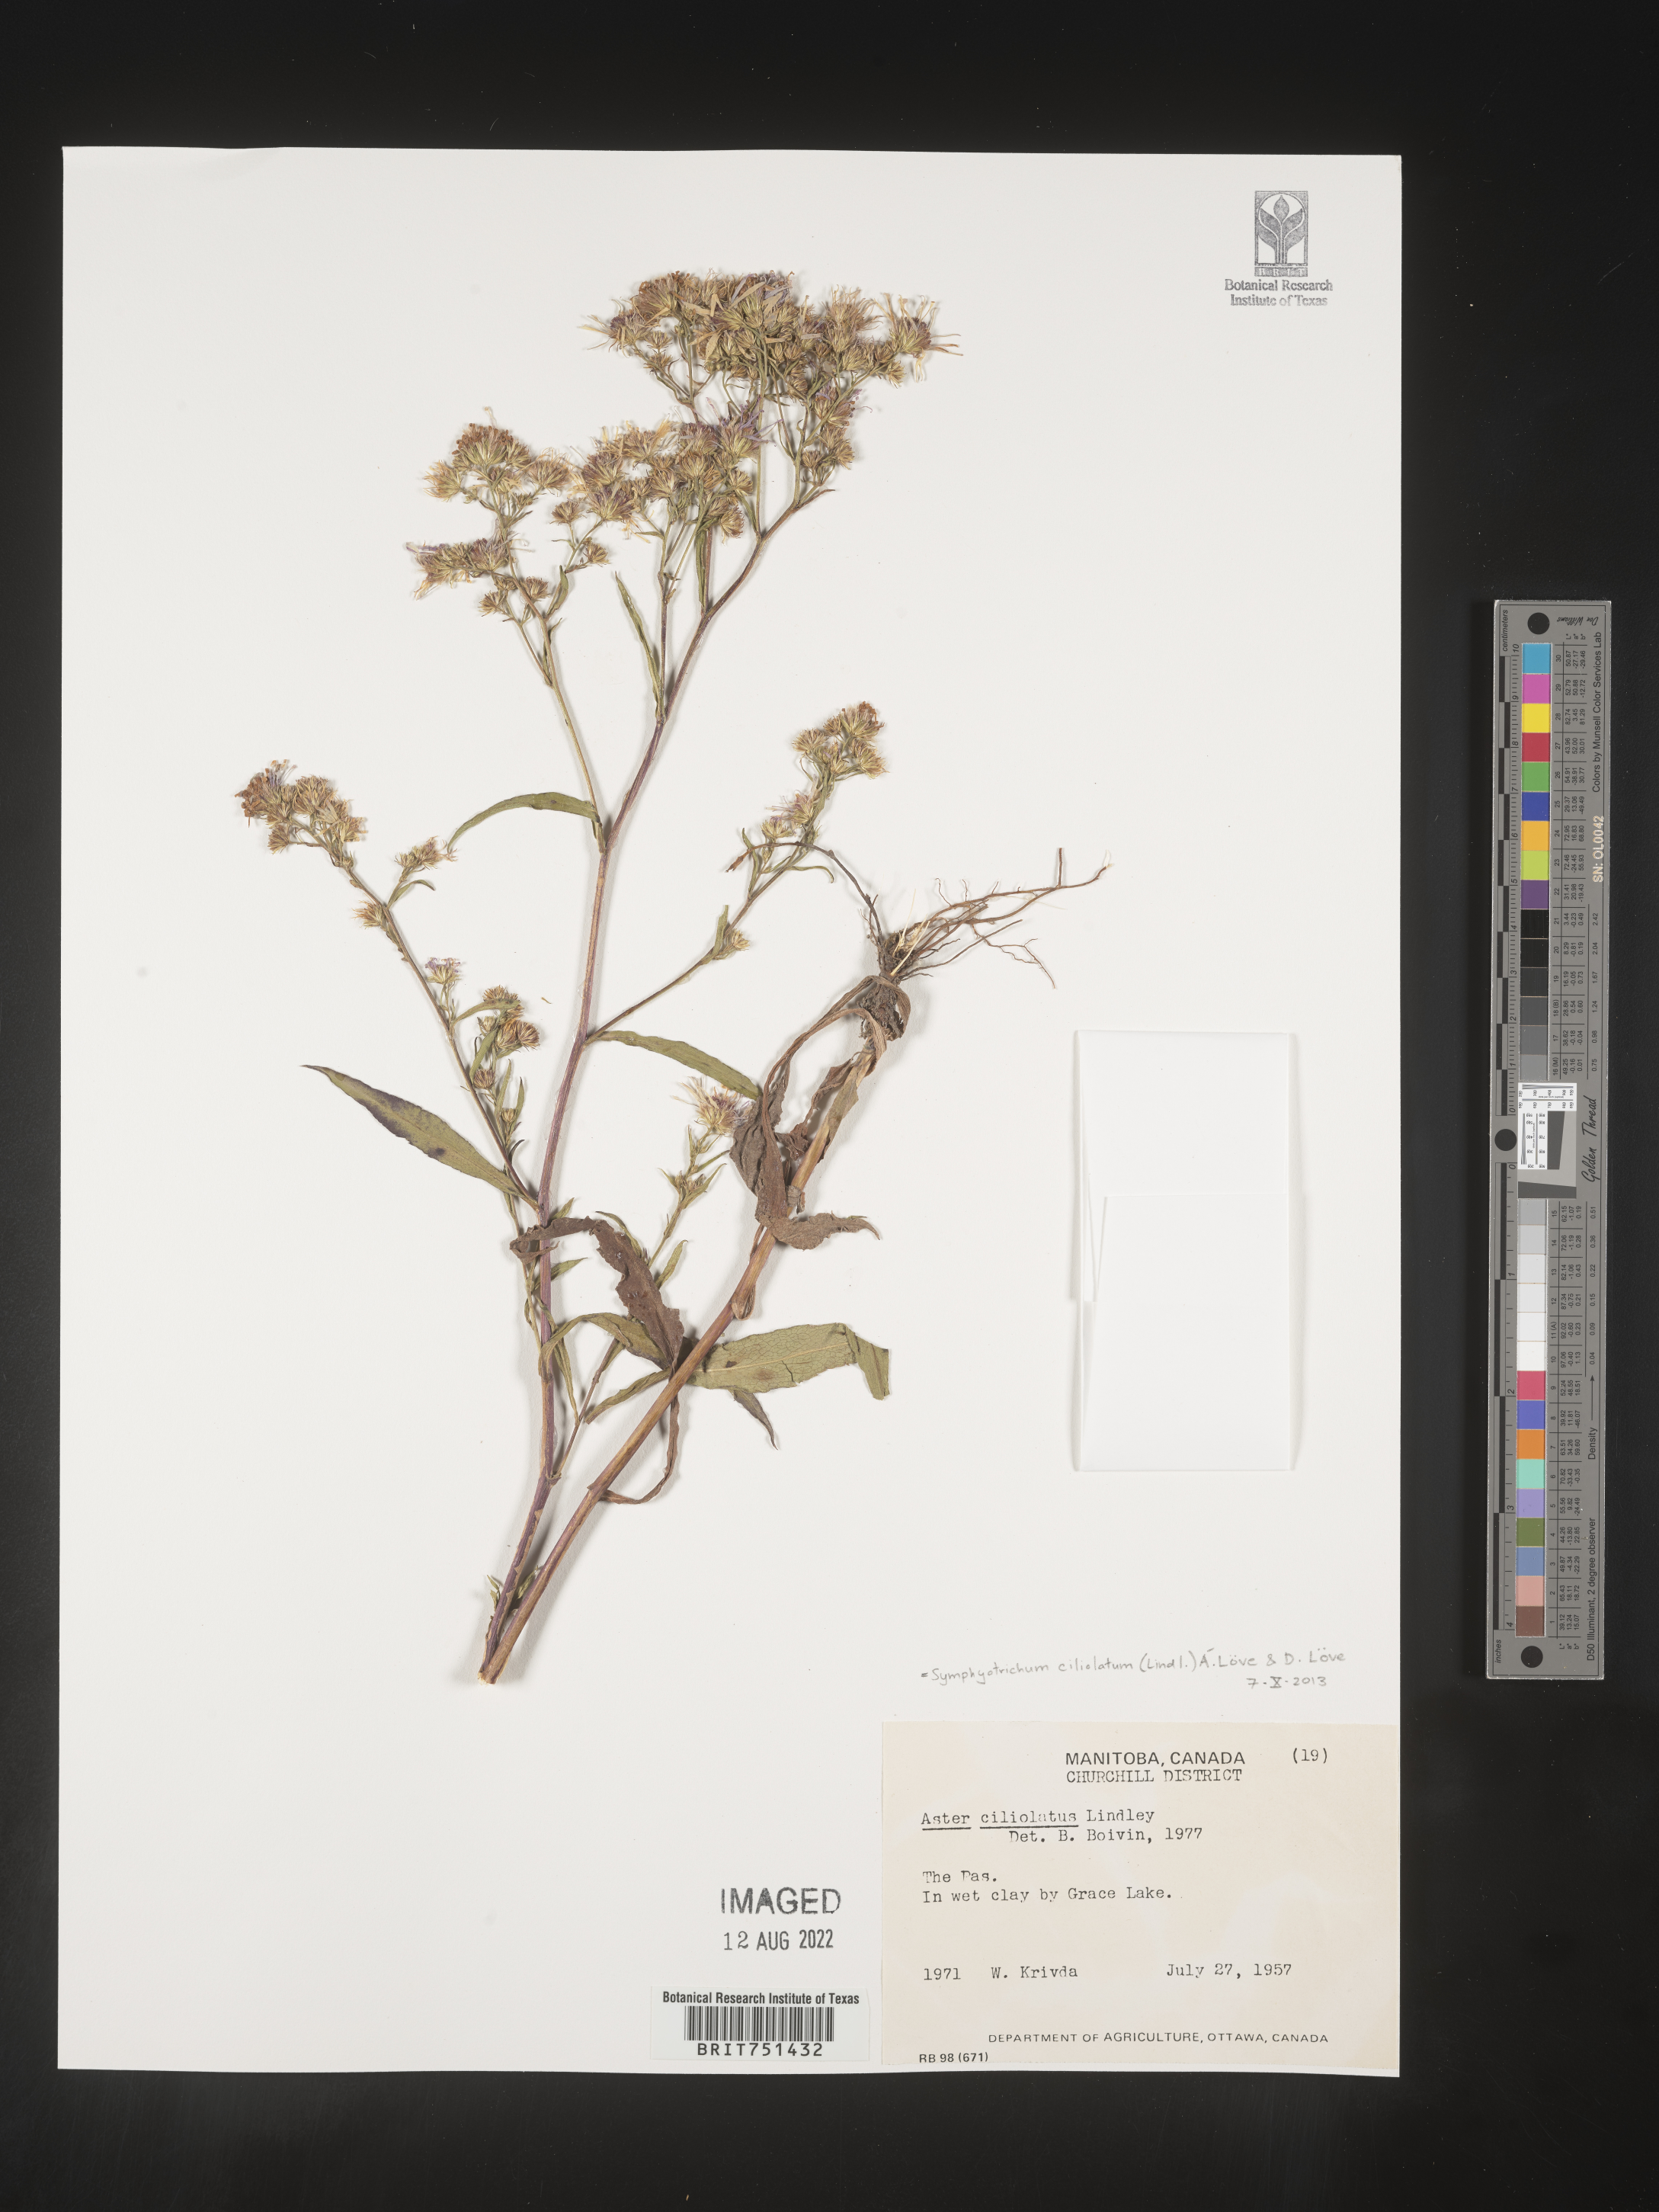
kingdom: Plantae
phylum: Tracheophyta
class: Magnoliopsida
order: Asterales
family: Asteraceae
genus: Symphyotrichum
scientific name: Symphyotrichum ciliatum
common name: Rayless annual aster
